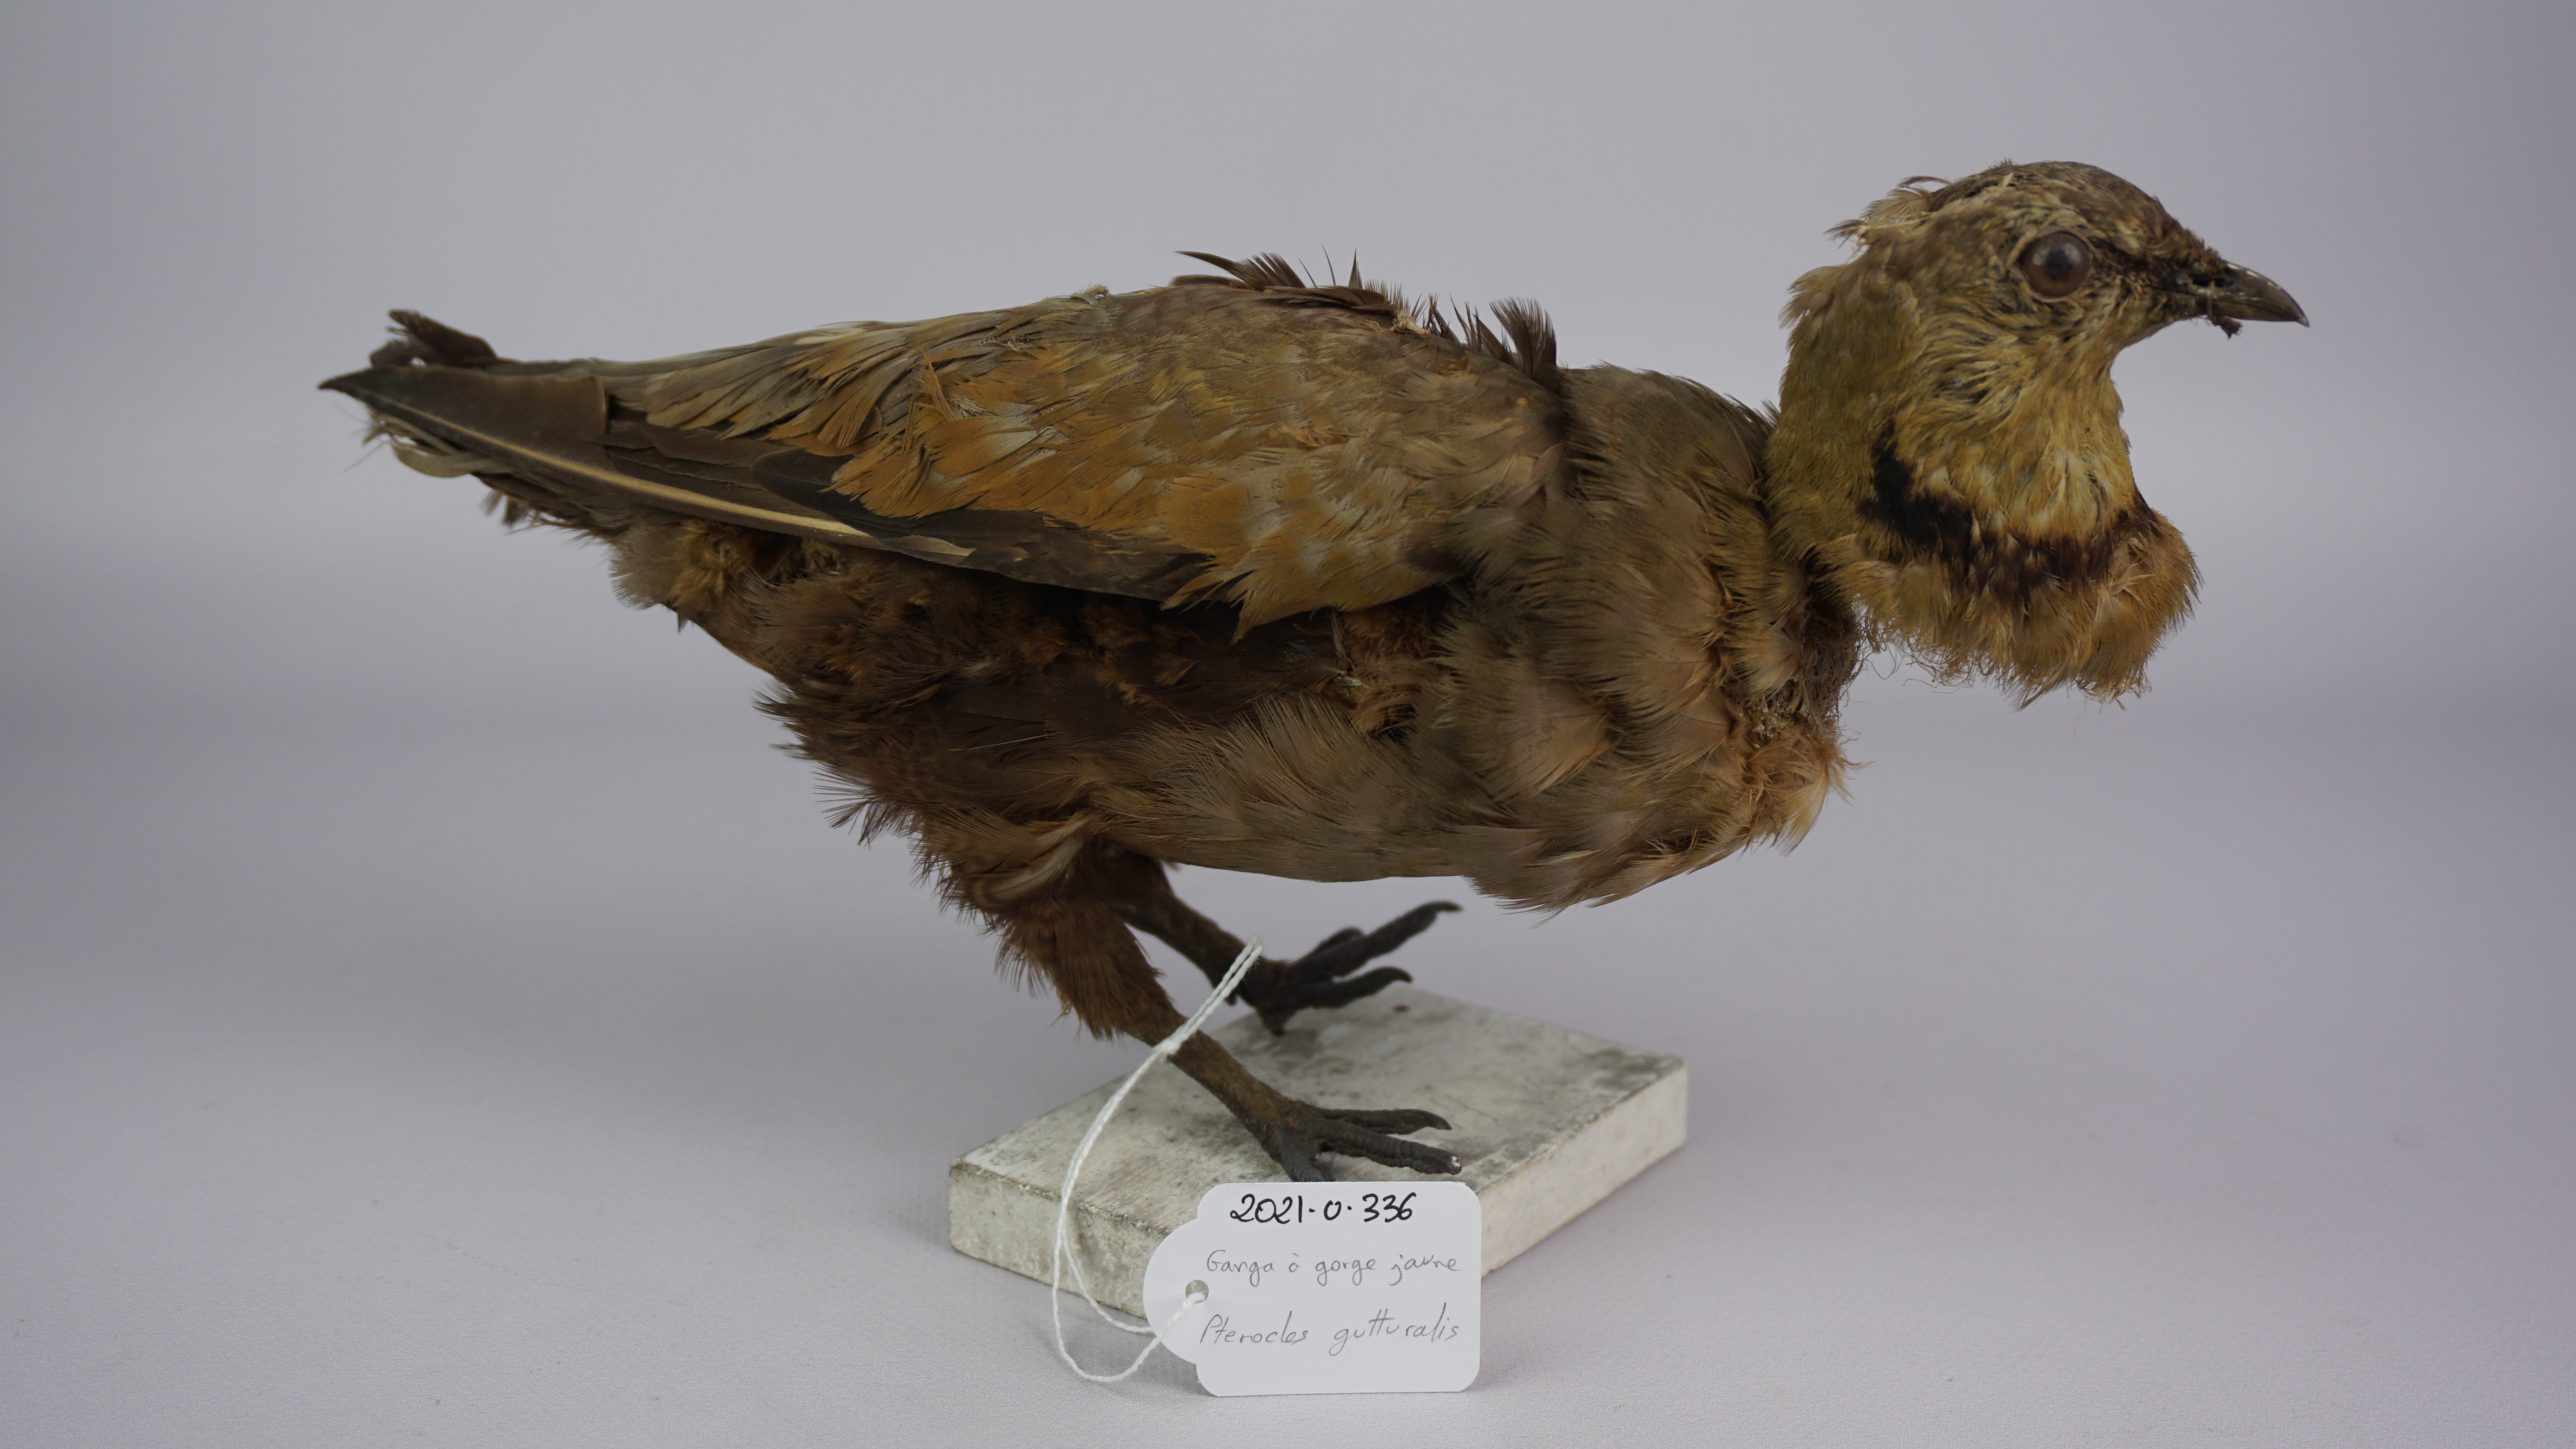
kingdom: Animalia
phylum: Chordata
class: Aves
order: Pteroclidiformes
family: Pteroclididae
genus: Pterocles
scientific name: Pterocles gutturalis
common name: Yellow-throated sandgrouse
